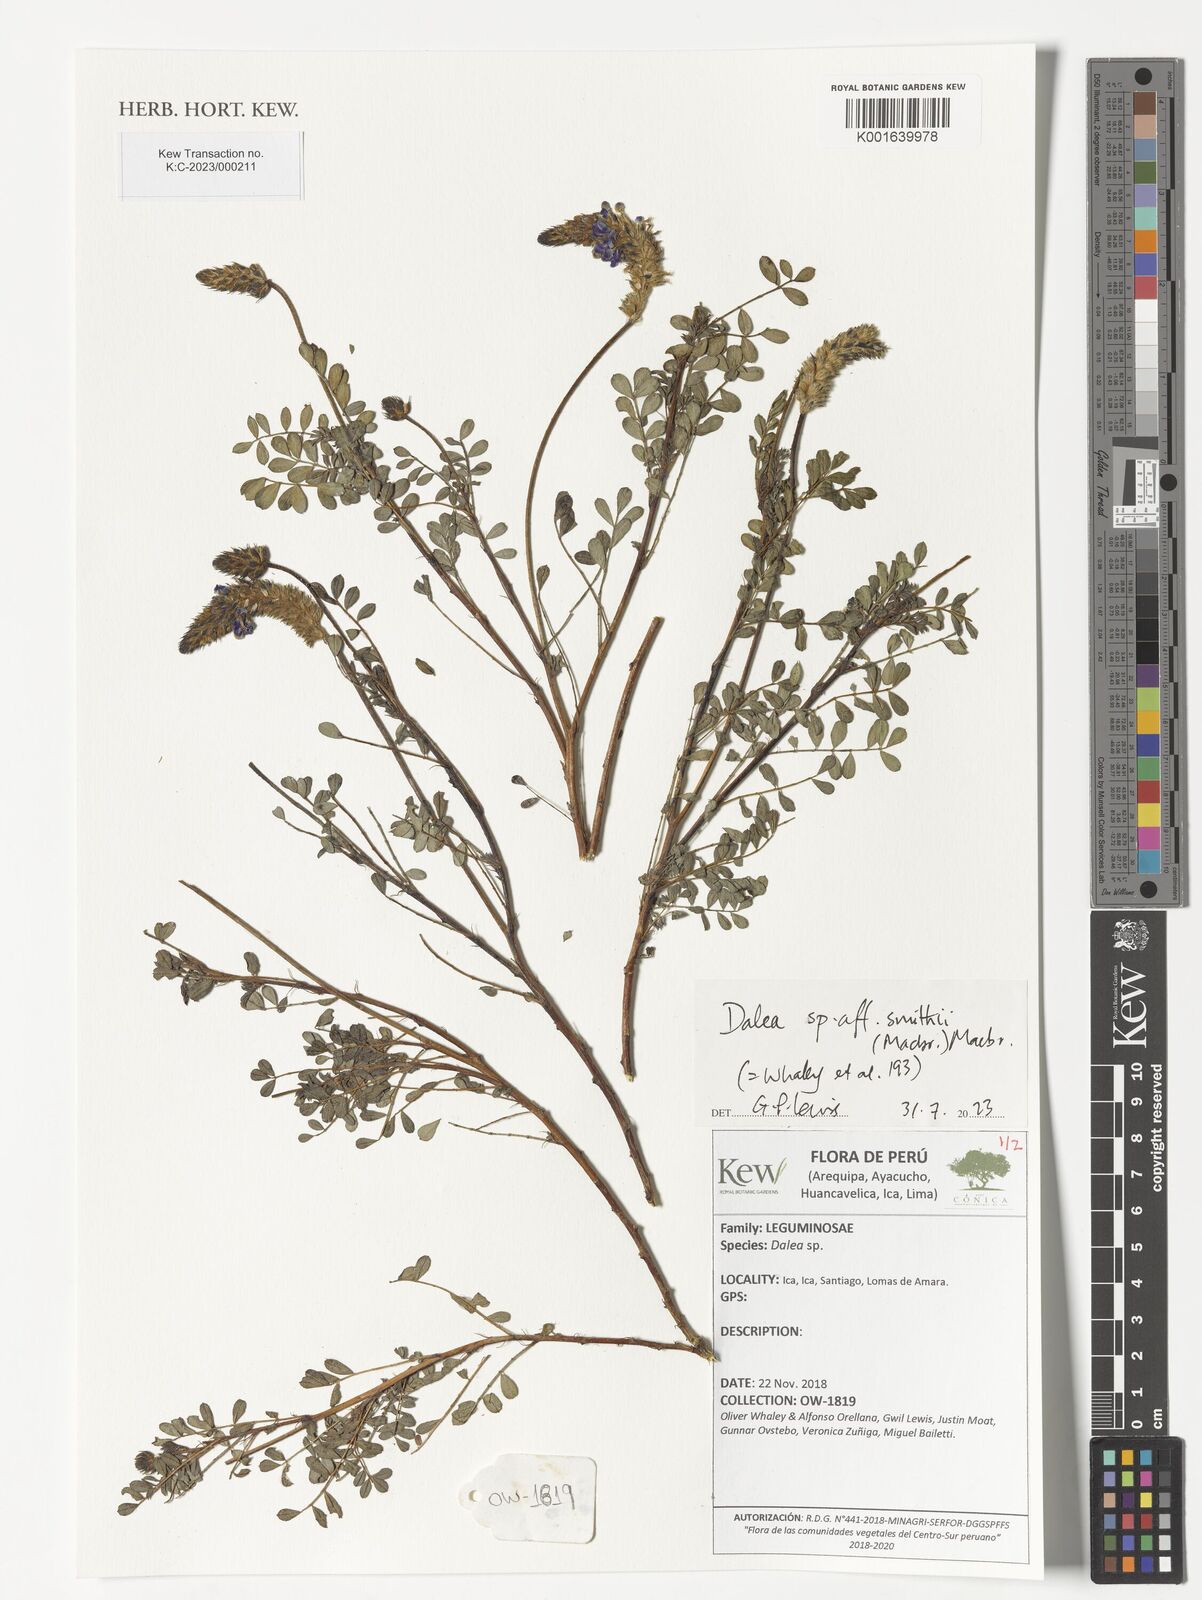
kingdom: Plantae
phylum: Tracheophyta
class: Magnoliopsida
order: Fabales
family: Fabaceae
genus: Dalea
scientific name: Dalea smithii
